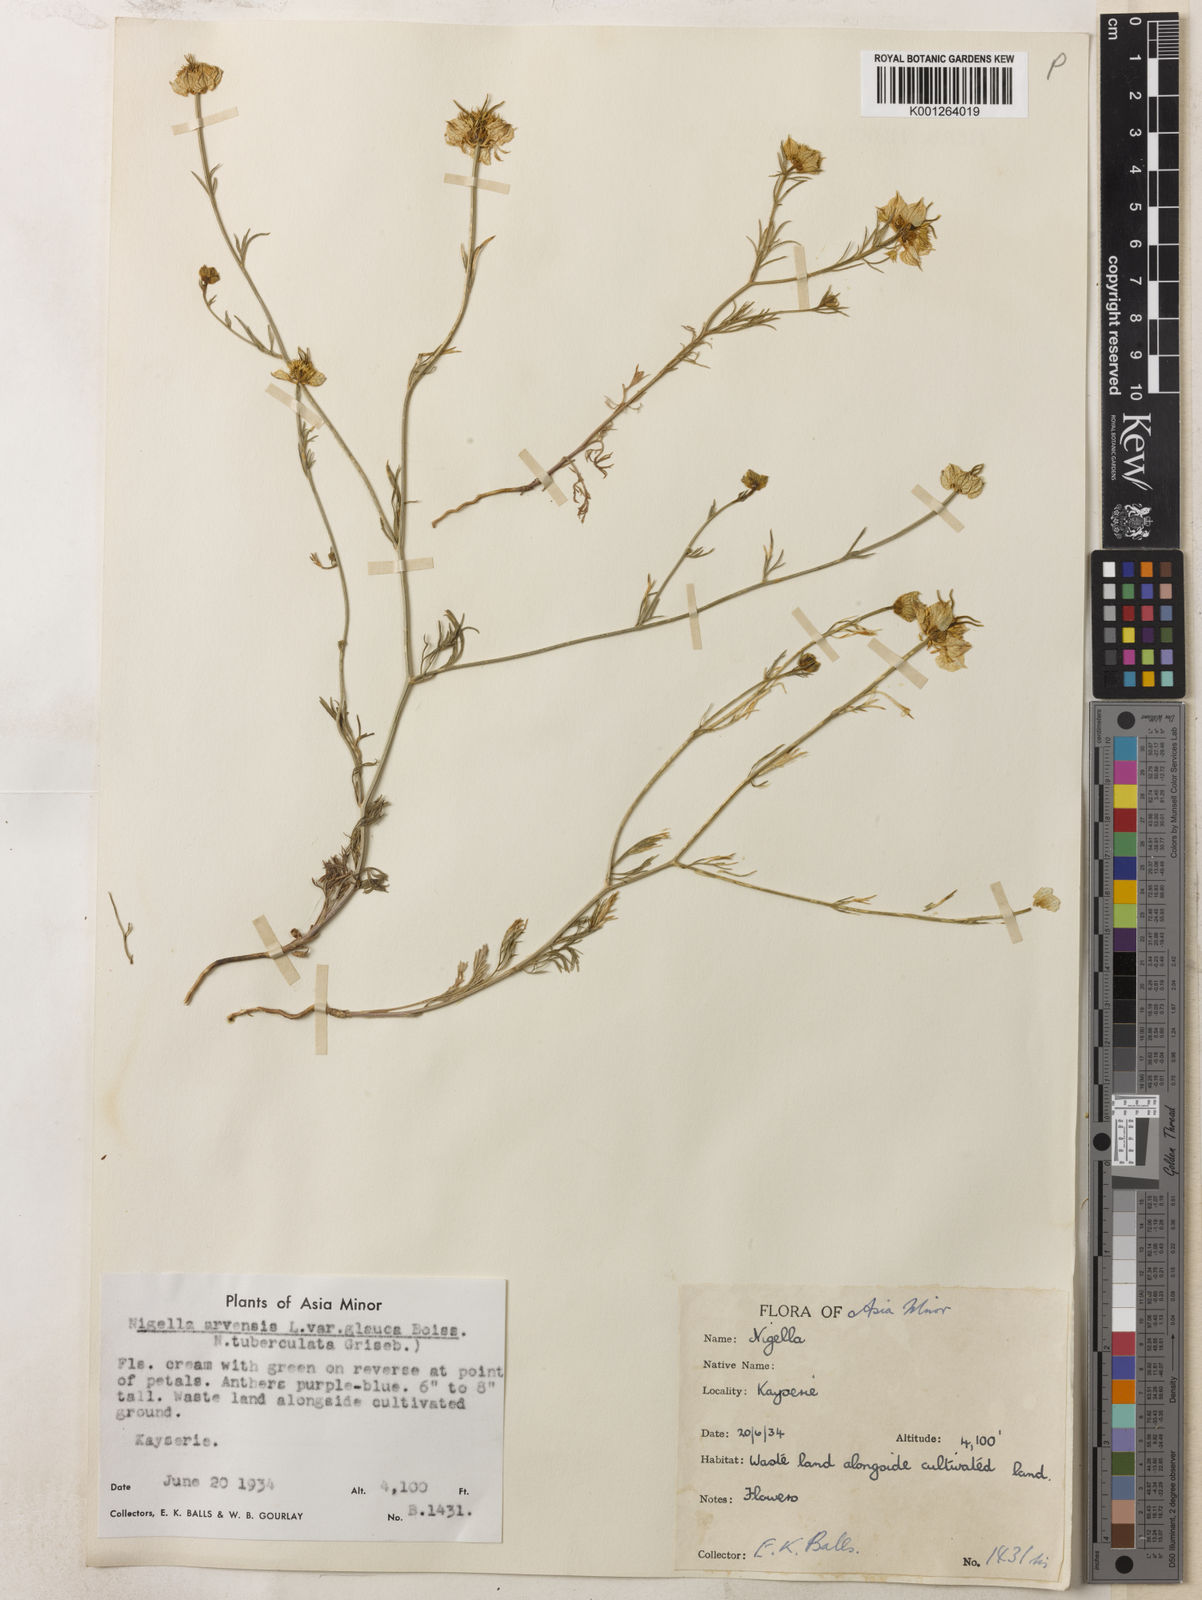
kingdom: Plantae
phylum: Tracheophyta
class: Magnoliopsida
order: Ranunculales
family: Ranunculaceae
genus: Nigella
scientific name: Nigella arvensis
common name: Wild fennel-flower
